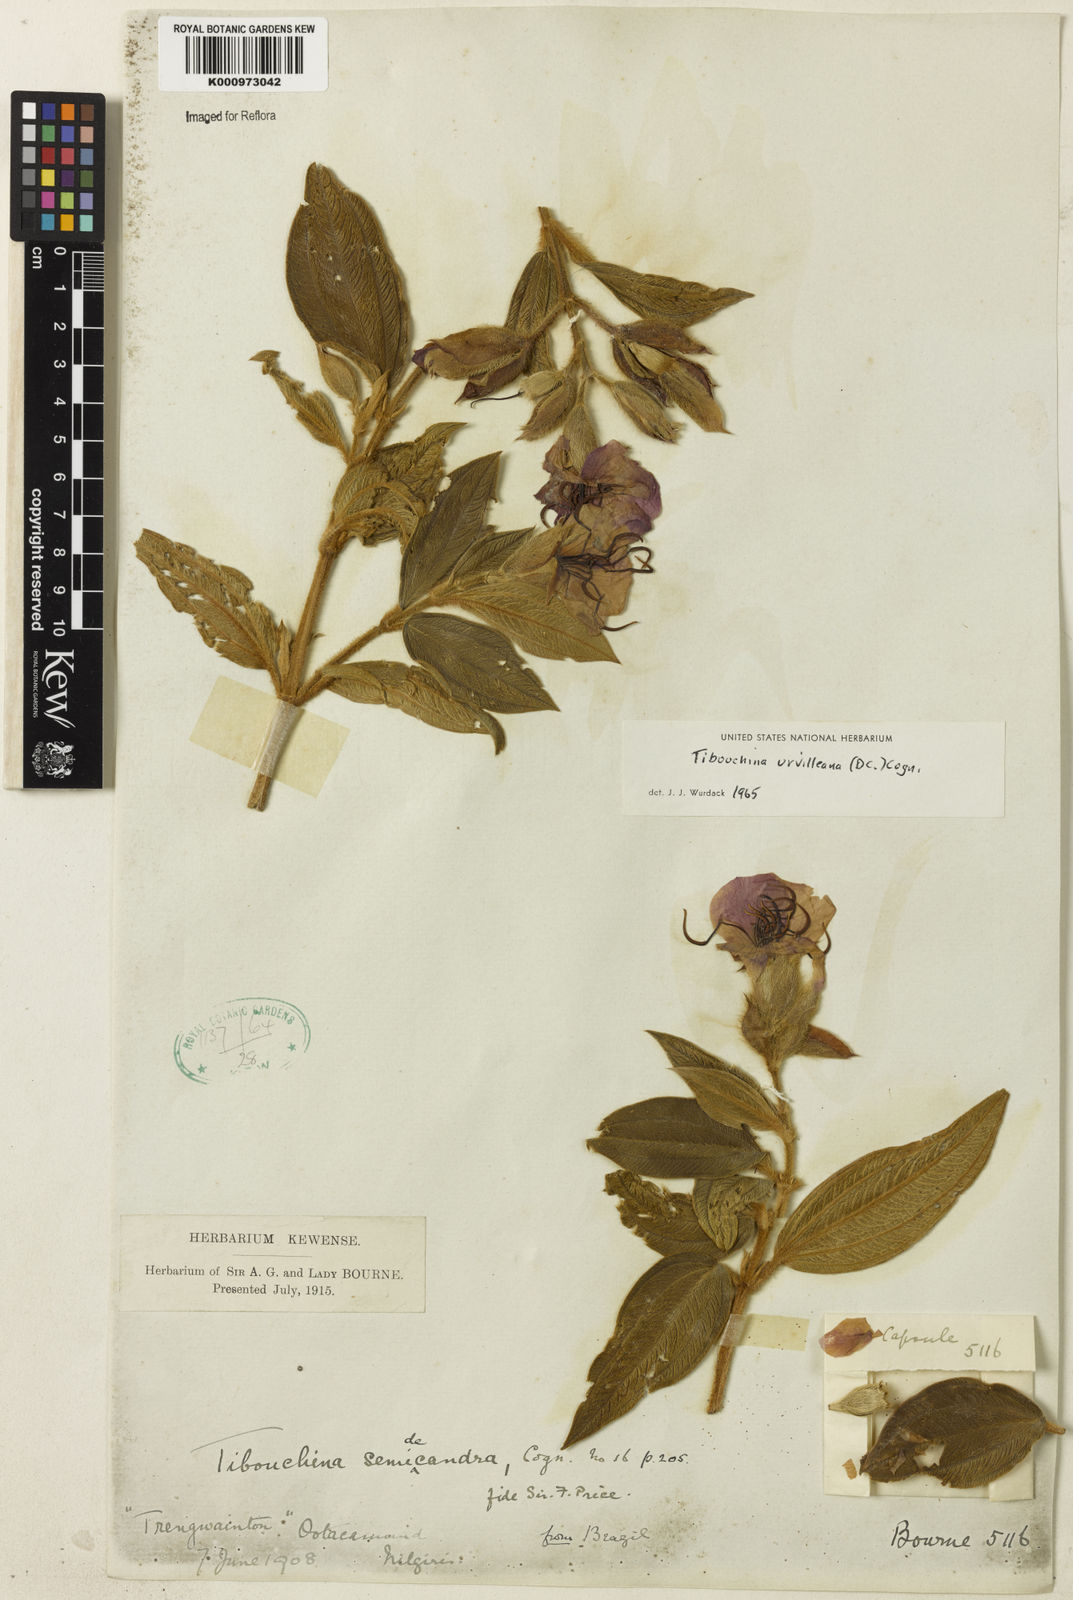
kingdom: Plantae
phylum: Tracheophyta
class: Magnoliopsida
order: Myrtales
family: Melastomataceae
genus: Pleroma
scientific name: Pleroma urvilleanum
